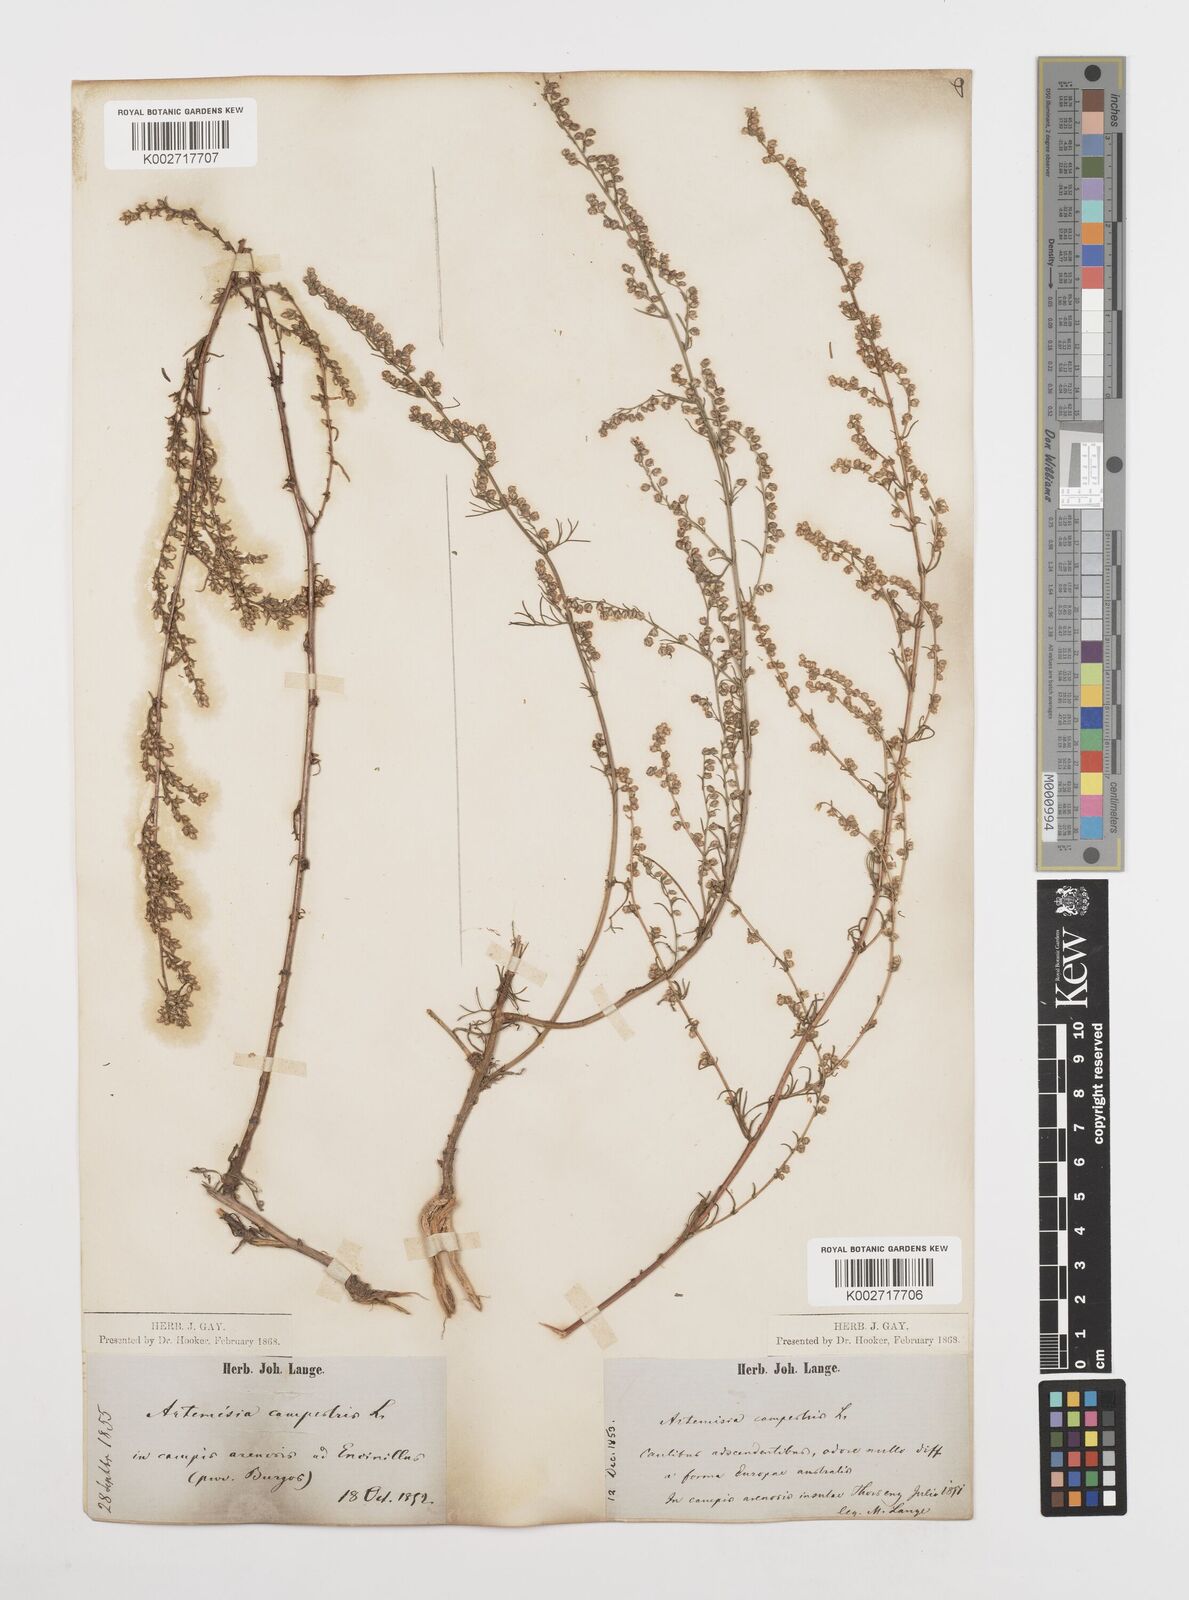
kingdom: Plantae
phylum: Tracheophyta
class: Magnoliopsida
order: Asterales
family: Asteraceae
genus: Artemisia
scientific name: Artemisia campestris
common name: Field wormwood
